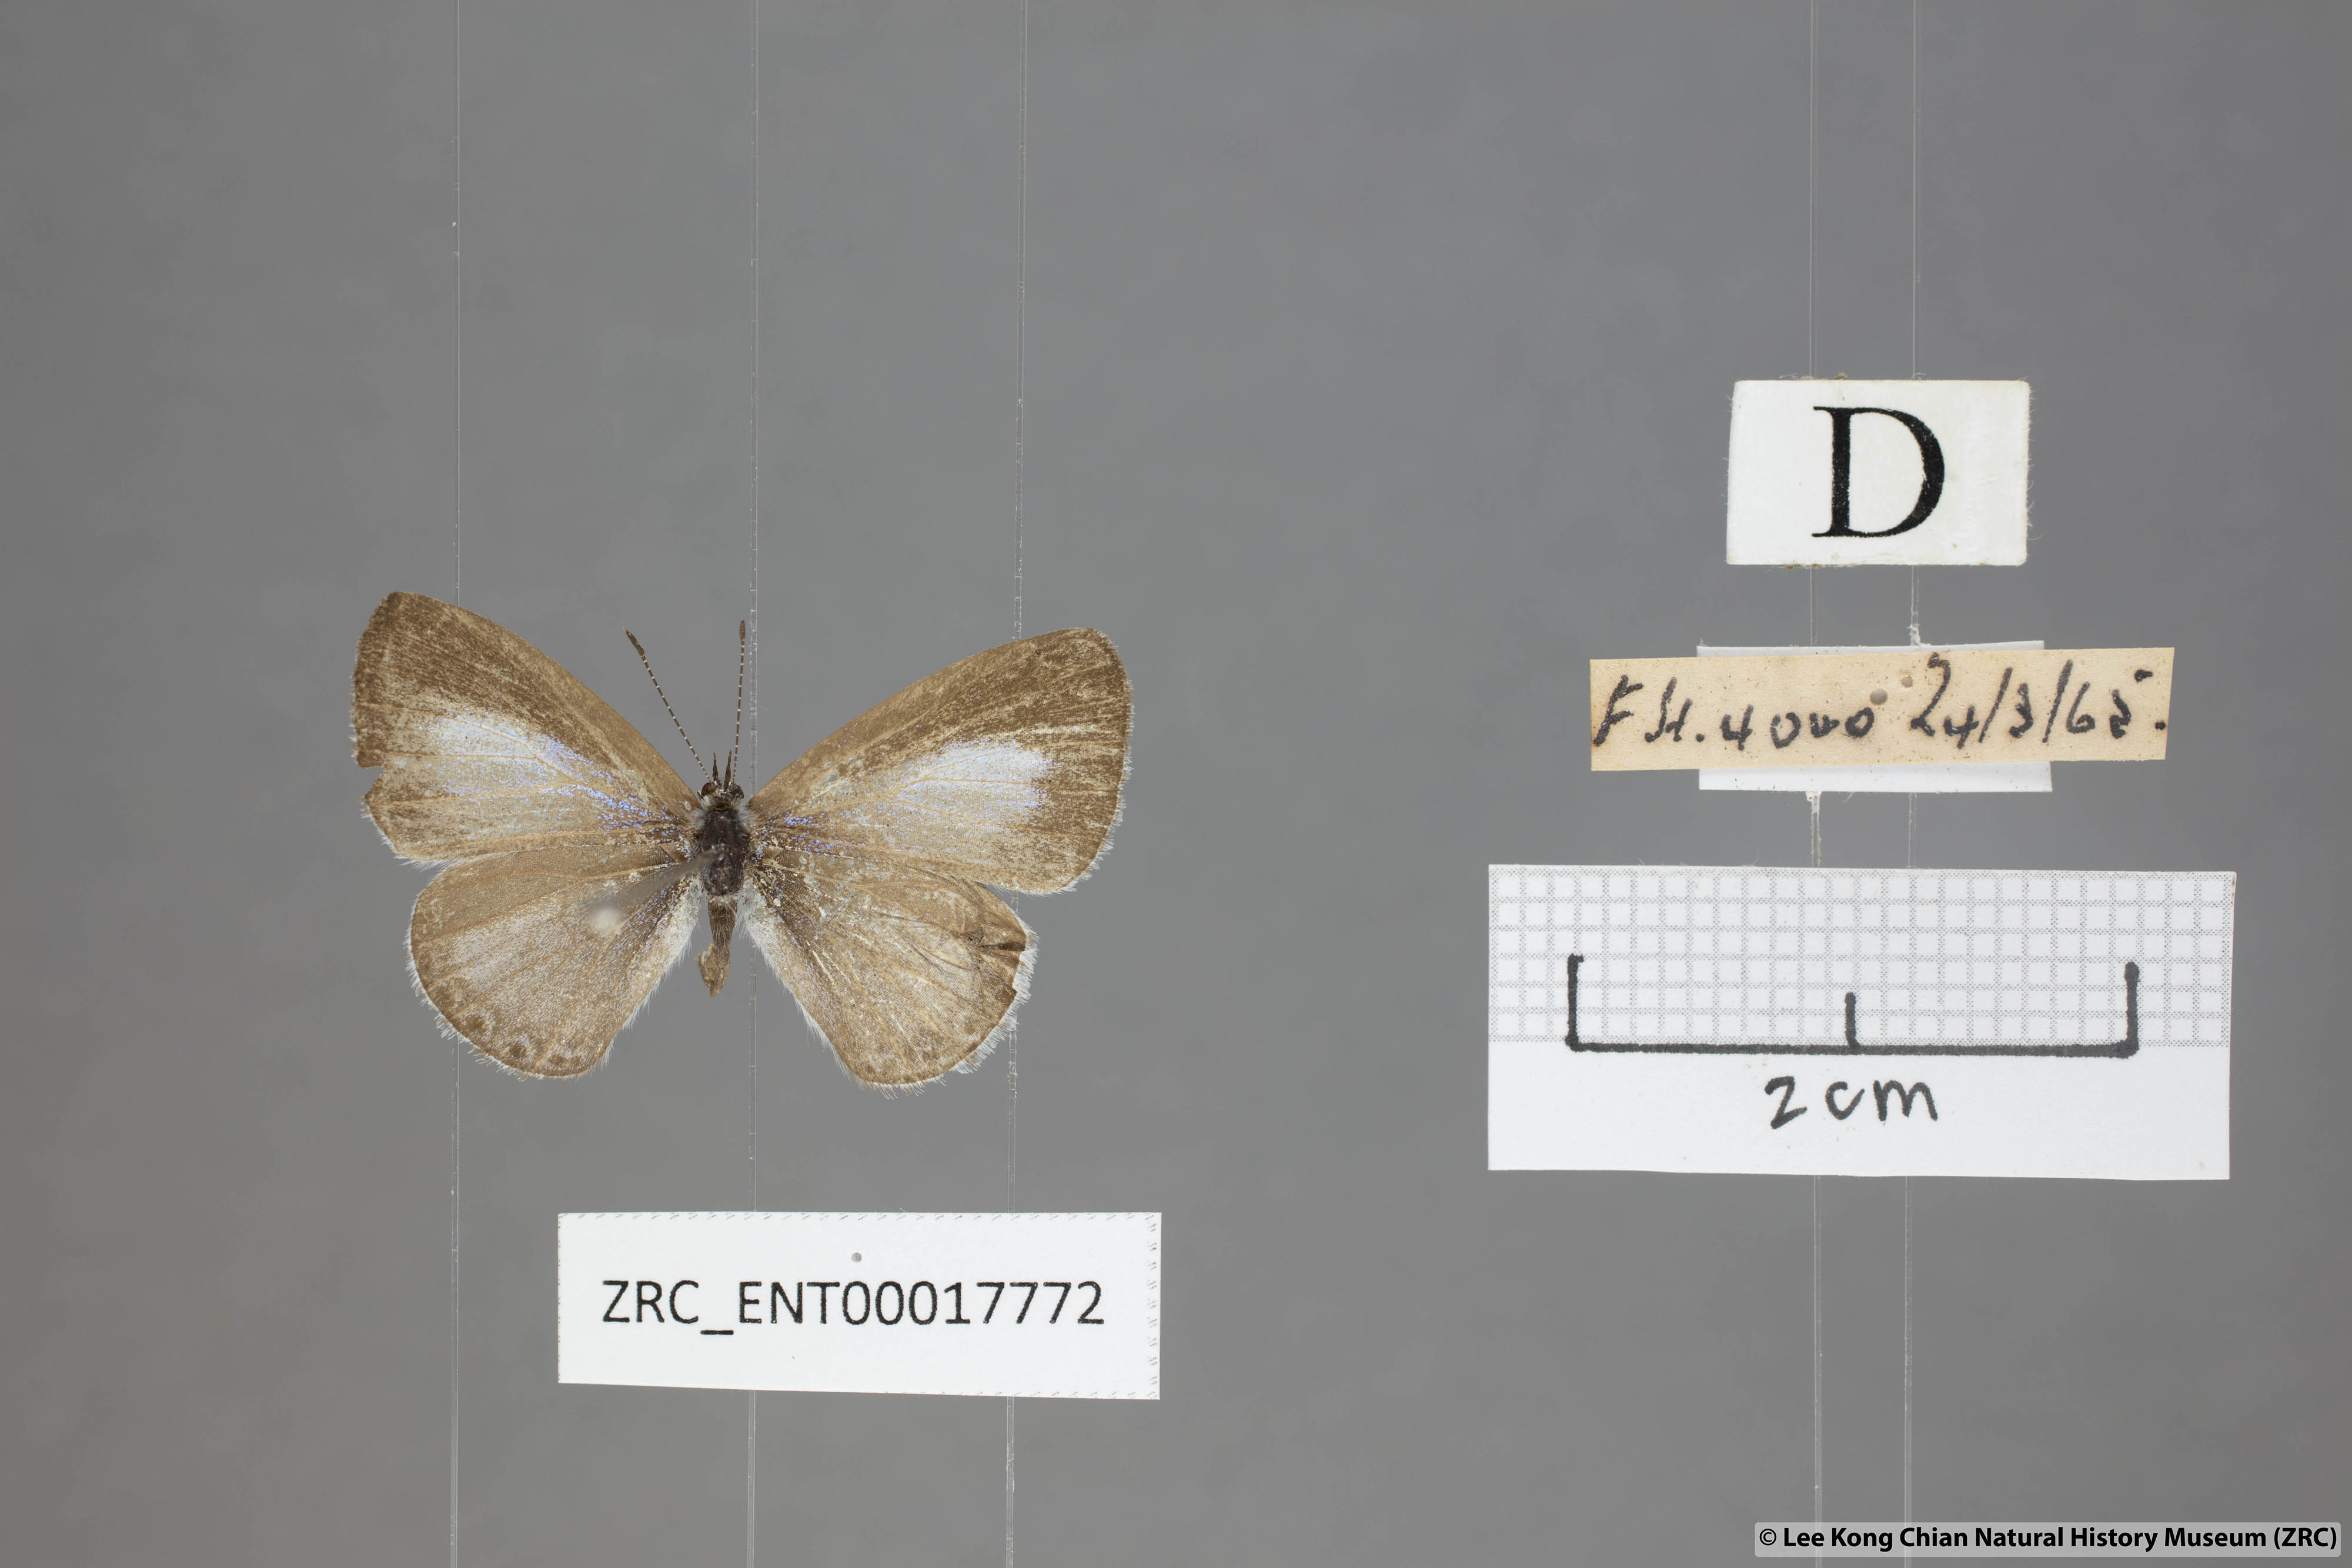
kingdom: Animalia
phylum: Arthropoda
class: Insecta
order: Lepidoptera
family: Lycaenidae
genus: Udara
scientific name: Udara dilectus
